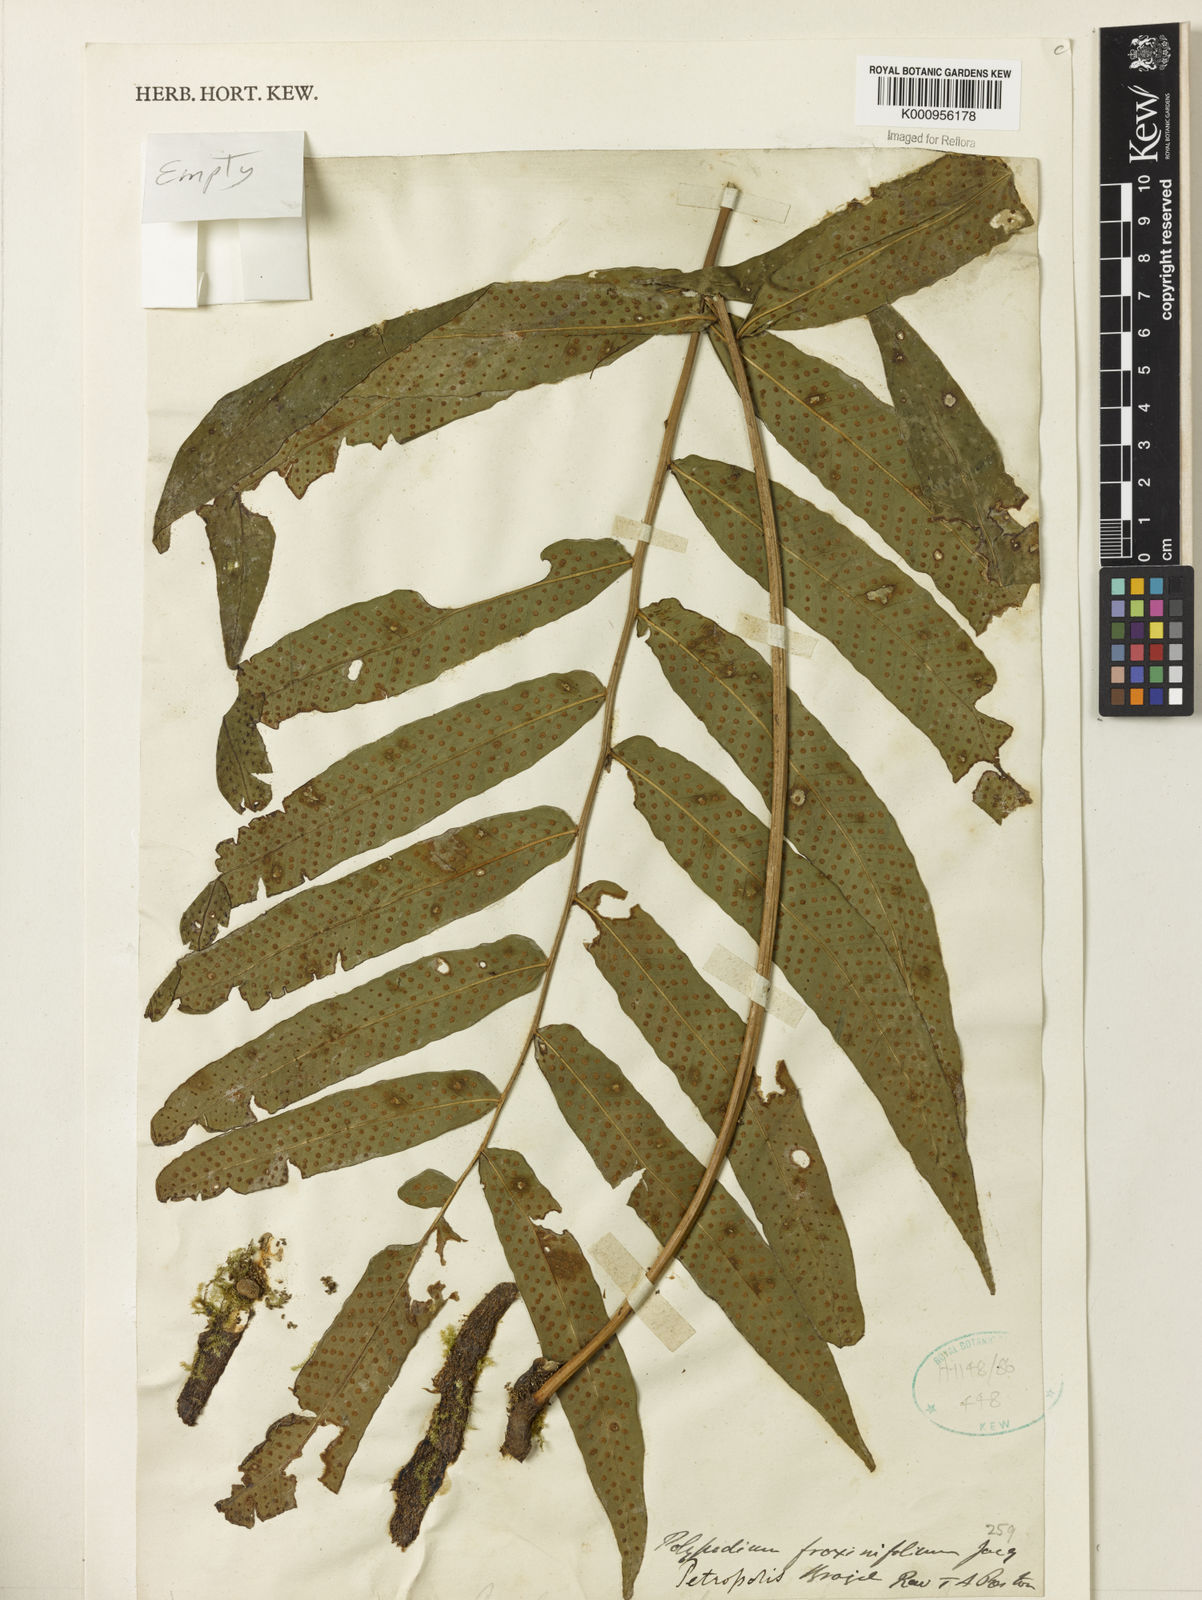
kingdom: Plantae
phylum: Tracheophyta
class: Polypodiopsida
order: Polypodiales
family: Polypodiaceae
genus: Serpocaulon
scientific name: Serpocaulon fraxinifolium
